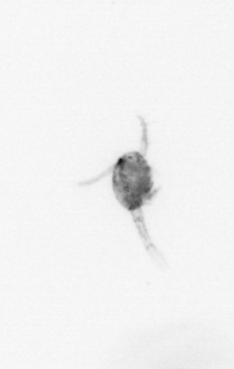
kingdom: Animalia
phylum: Arthropoda
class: Copepoda
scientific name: Copepoda
